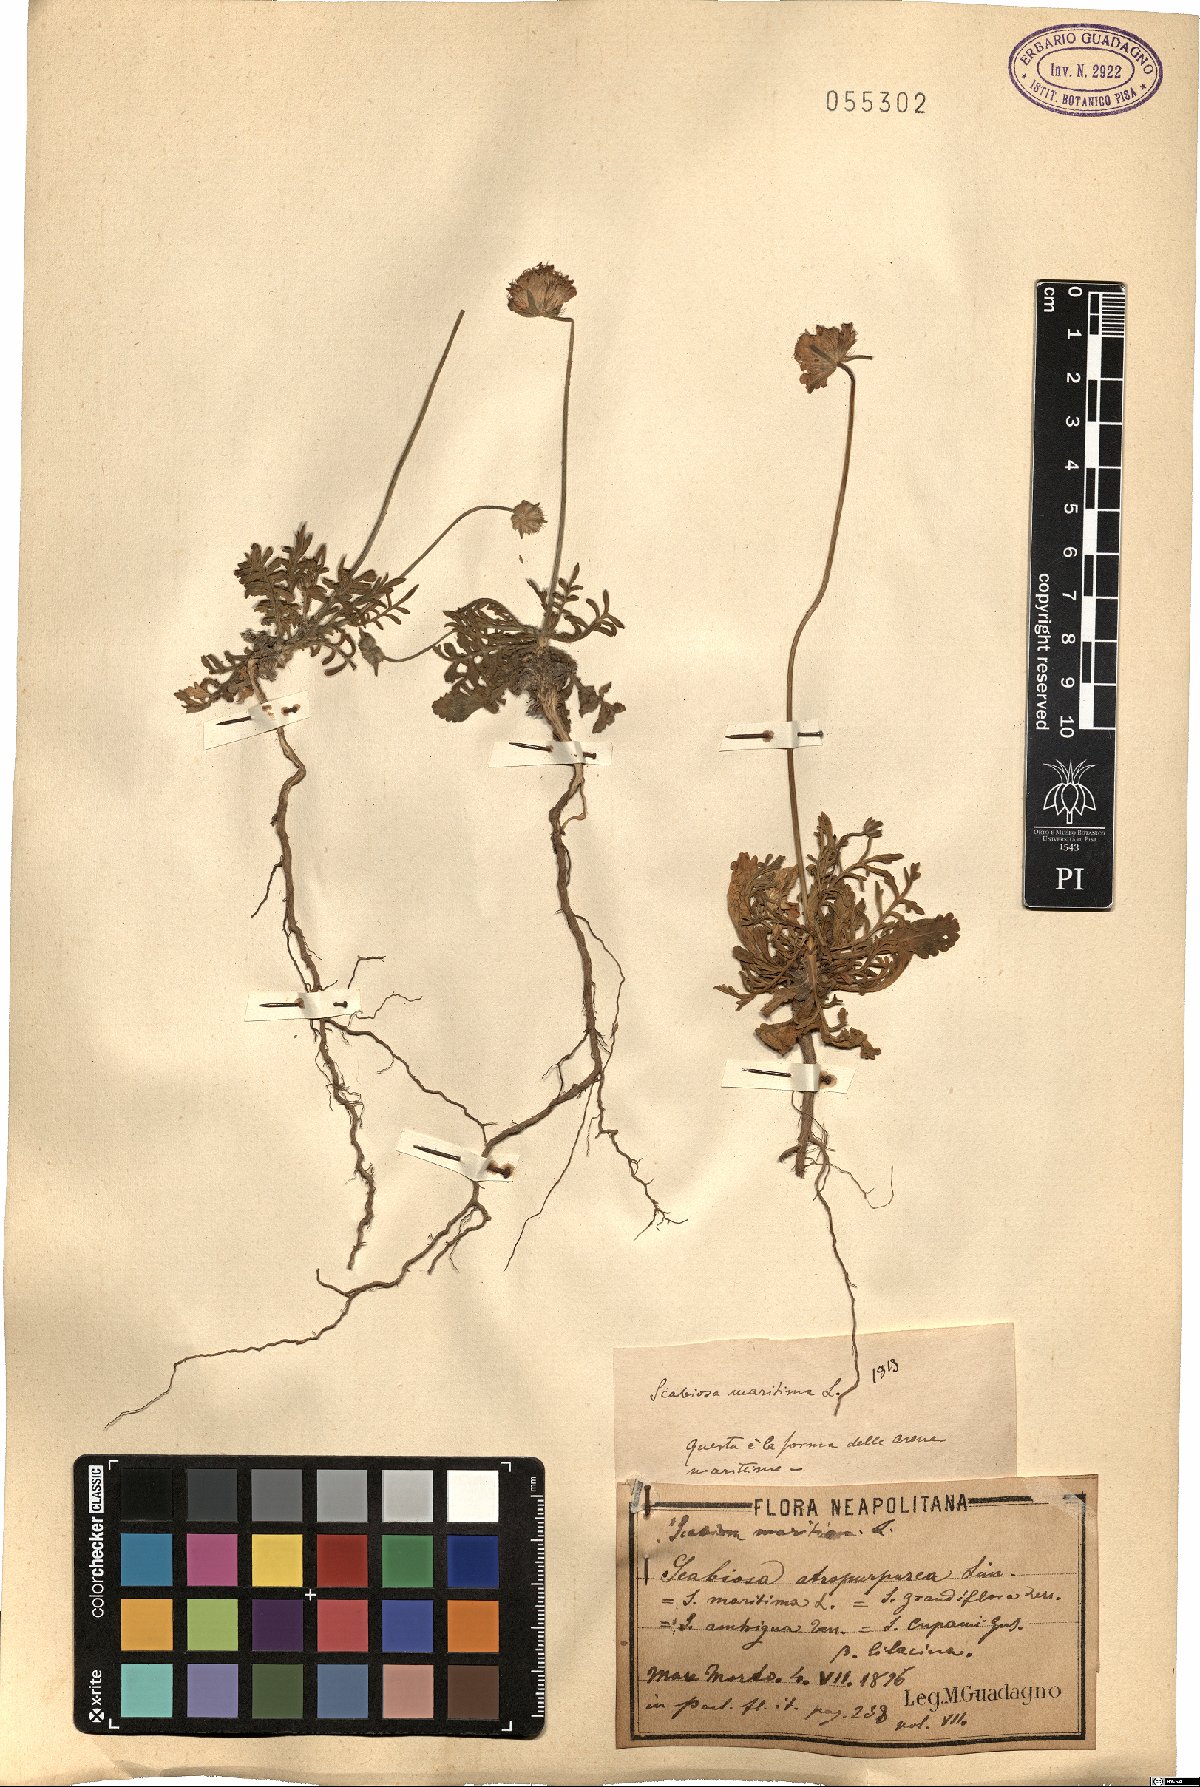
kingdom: Plantae
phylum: Tracheophyta
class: Magnoliopsida
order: Dipsacales
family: Caprifoliaceae
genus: Sixalix
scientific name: Sixalix maritima
